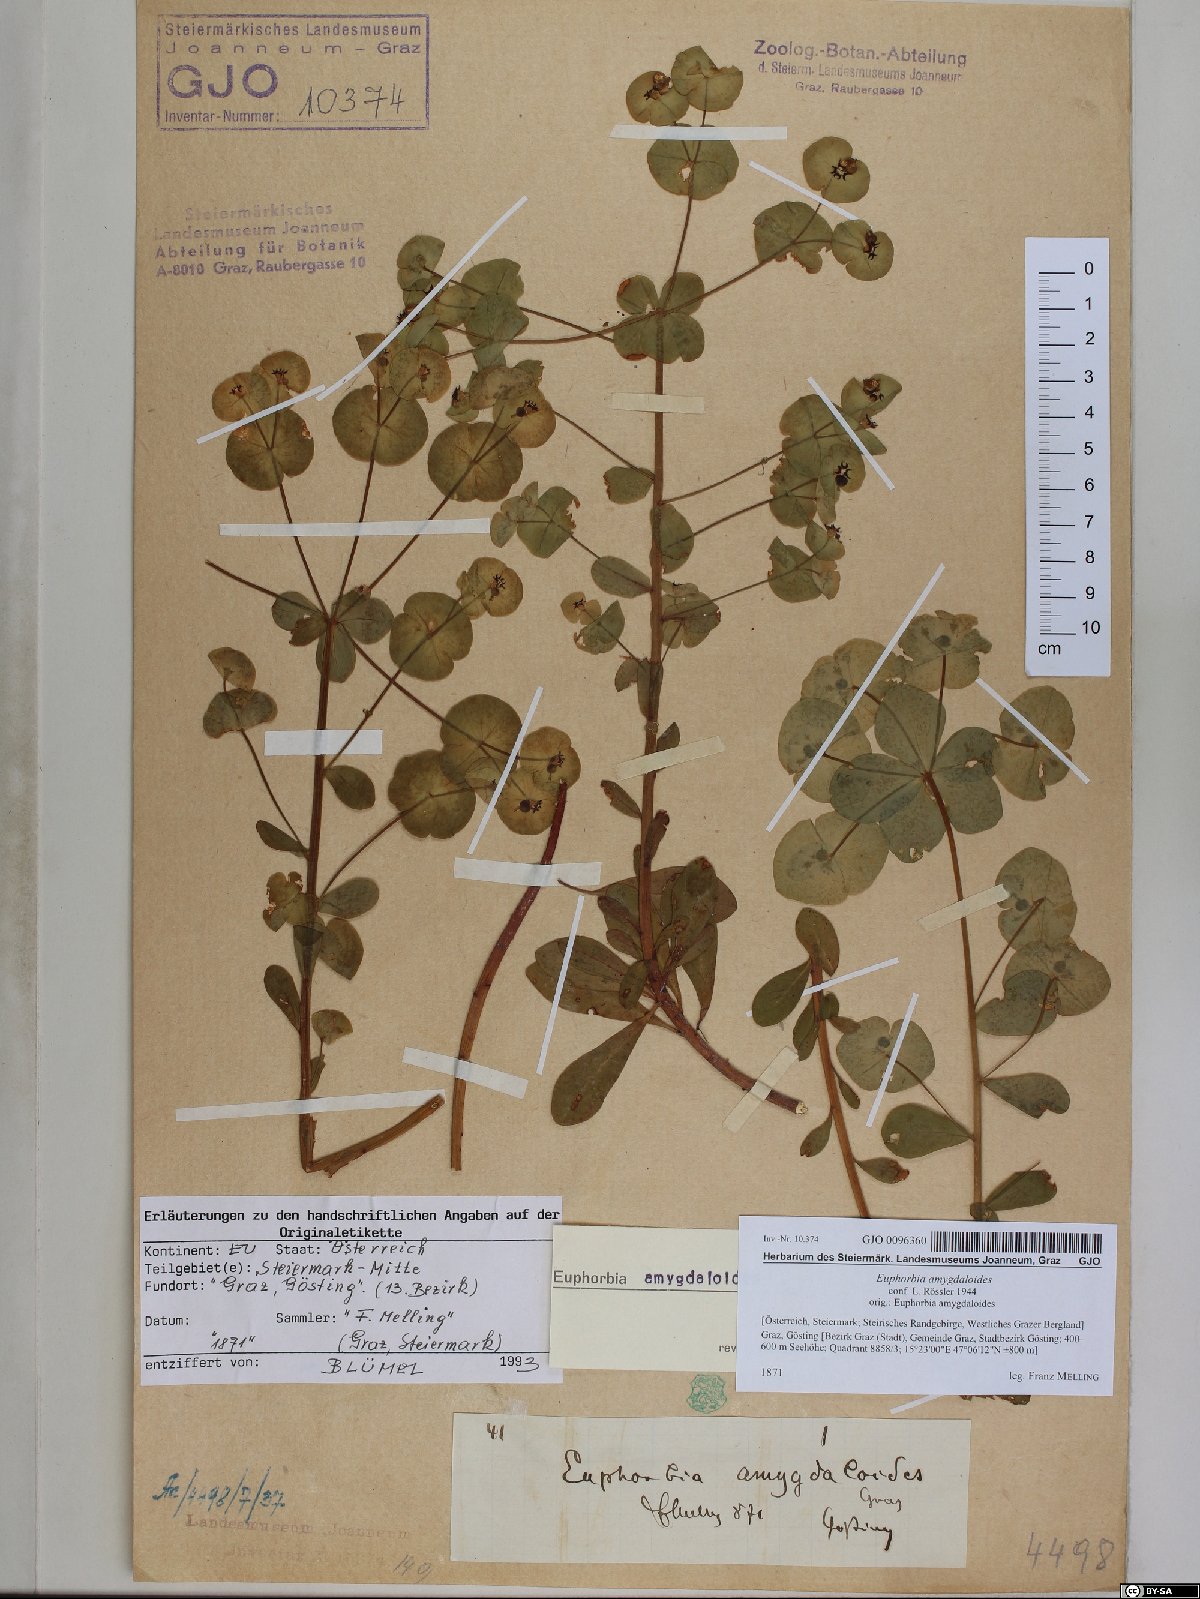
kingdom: Plantae
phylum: Tracheophyta
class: Magnoliopsida
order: Malpighiales
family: Euphorbiaceae
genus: Euphorbia
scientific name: Euphorbia amygdaloides
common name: Wood spurge
